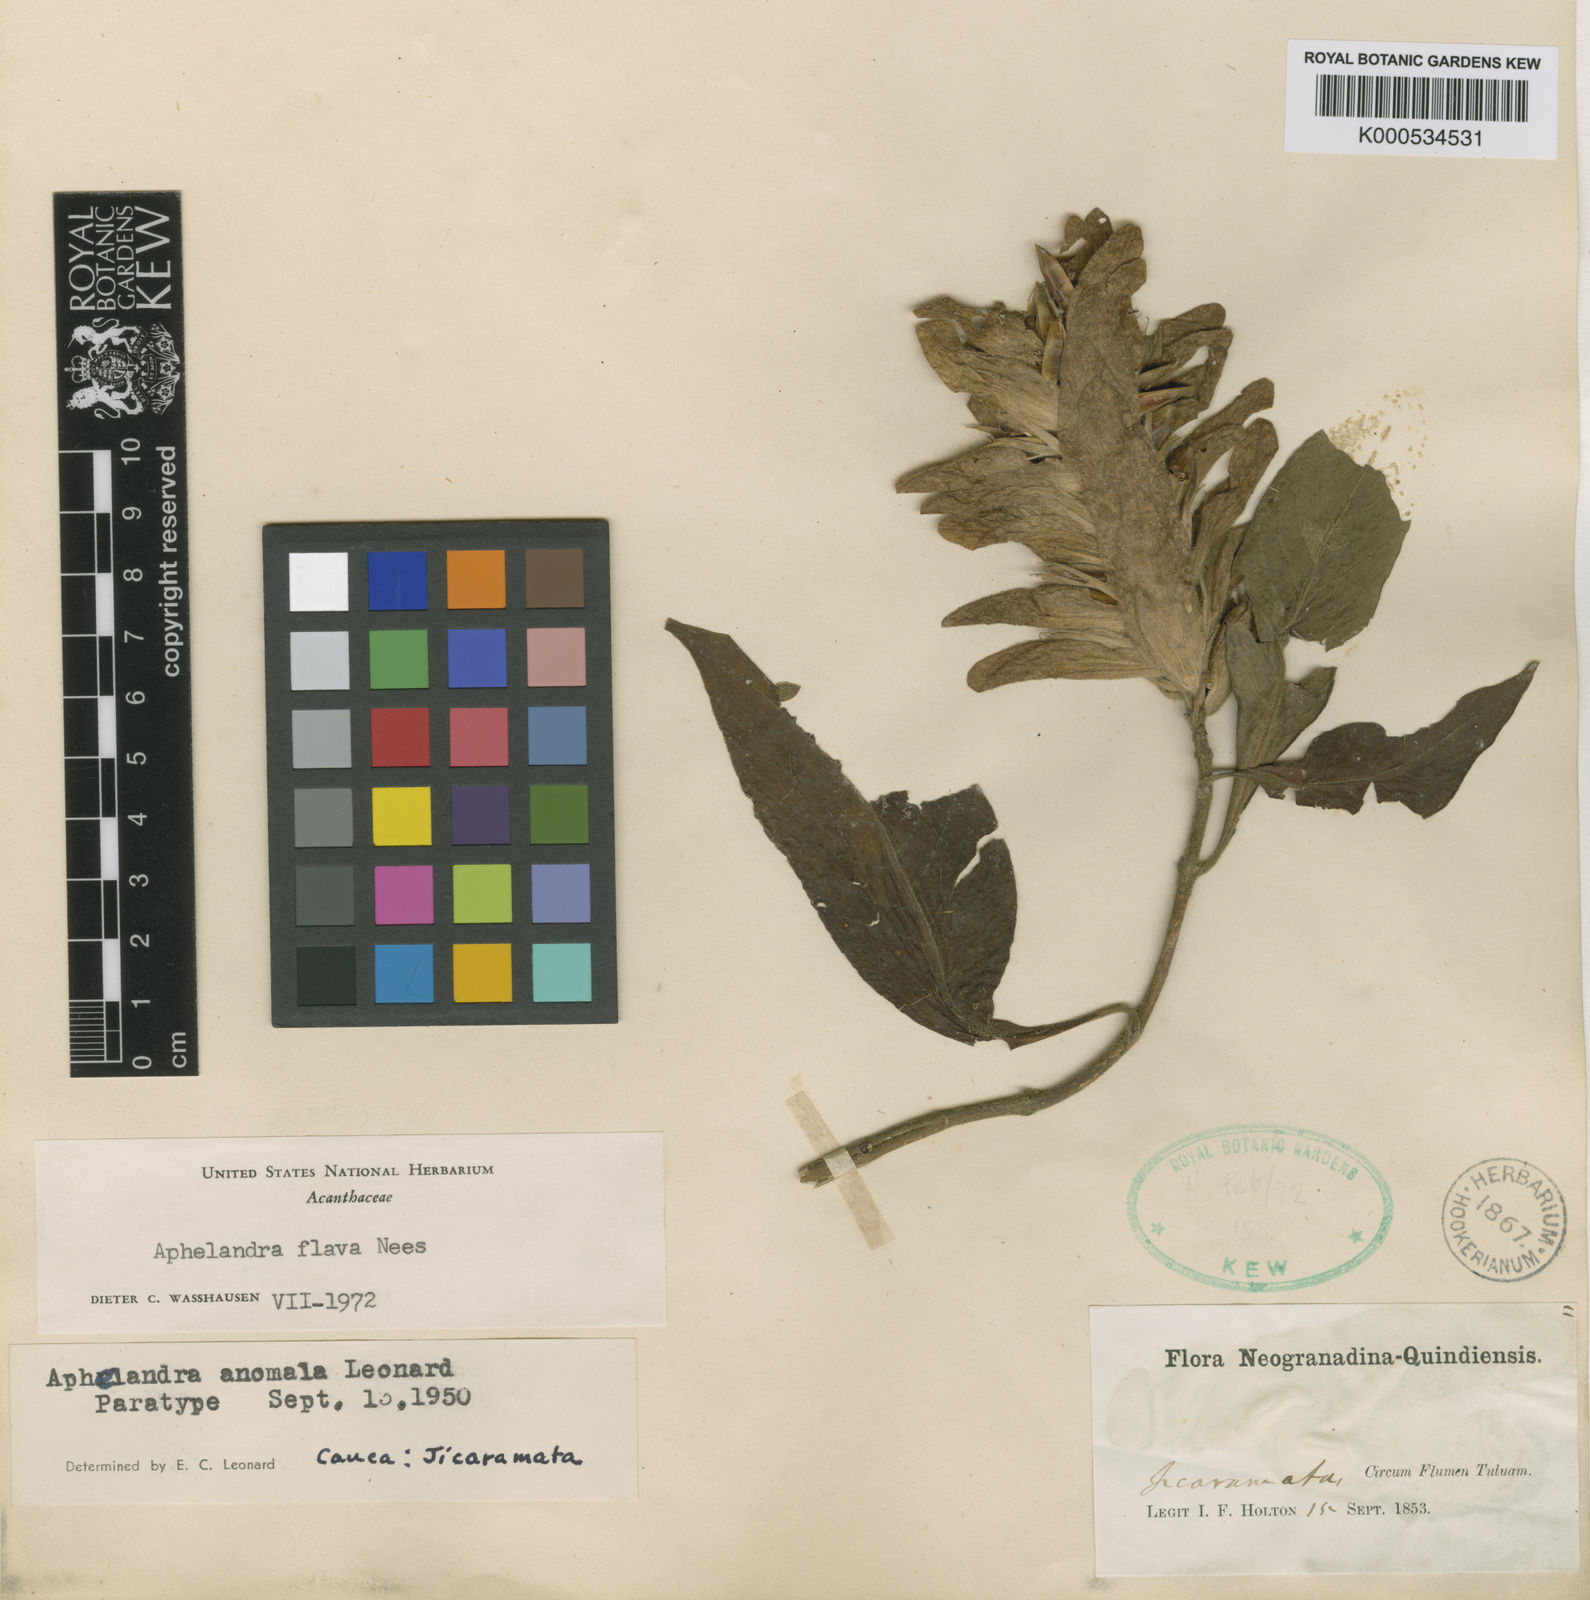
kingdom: Plantae
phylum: Tracheophyta
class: Magnoliopsida
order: Lamiales
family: Acanthaceae
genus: Aphelandra
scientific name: Aphelandra flava
